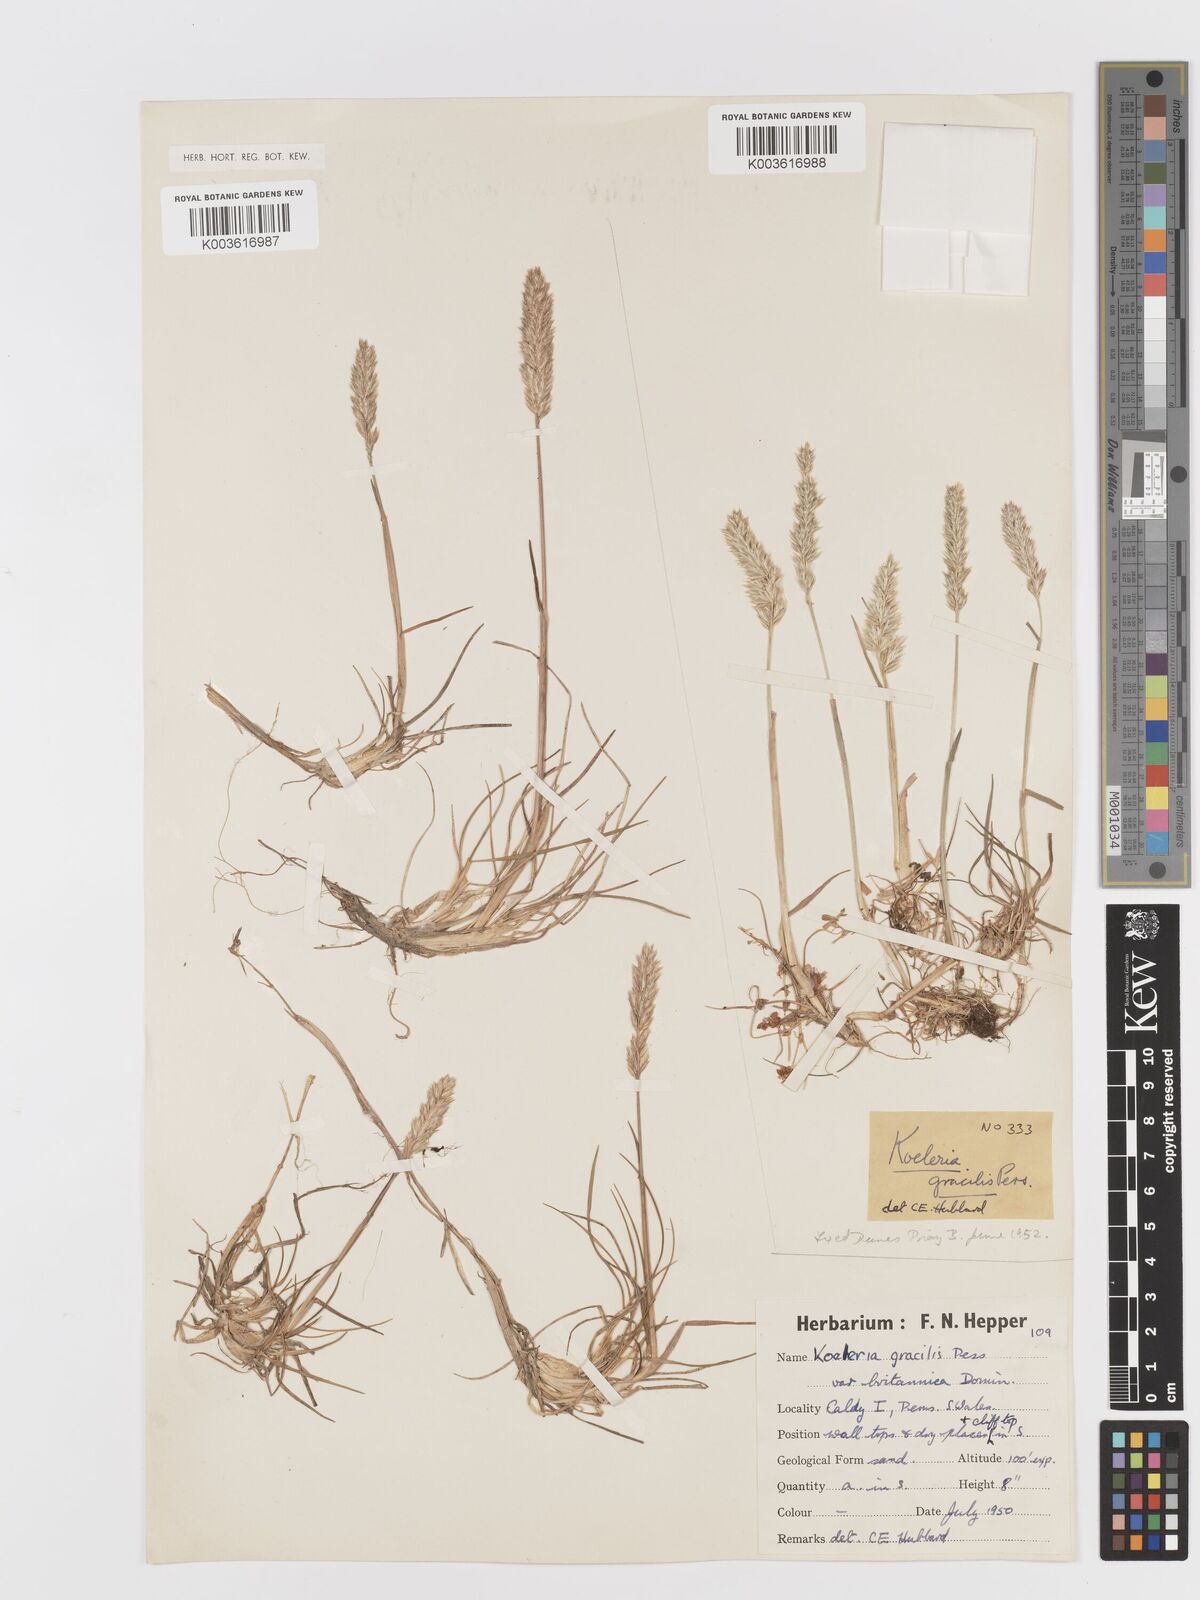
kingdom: Plantae
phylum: Tracheophyta
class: Liliopsida
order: Poales
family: Poaceae
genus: Koeleria
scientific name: Koeleria macrantha
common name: Crested hair-grass
